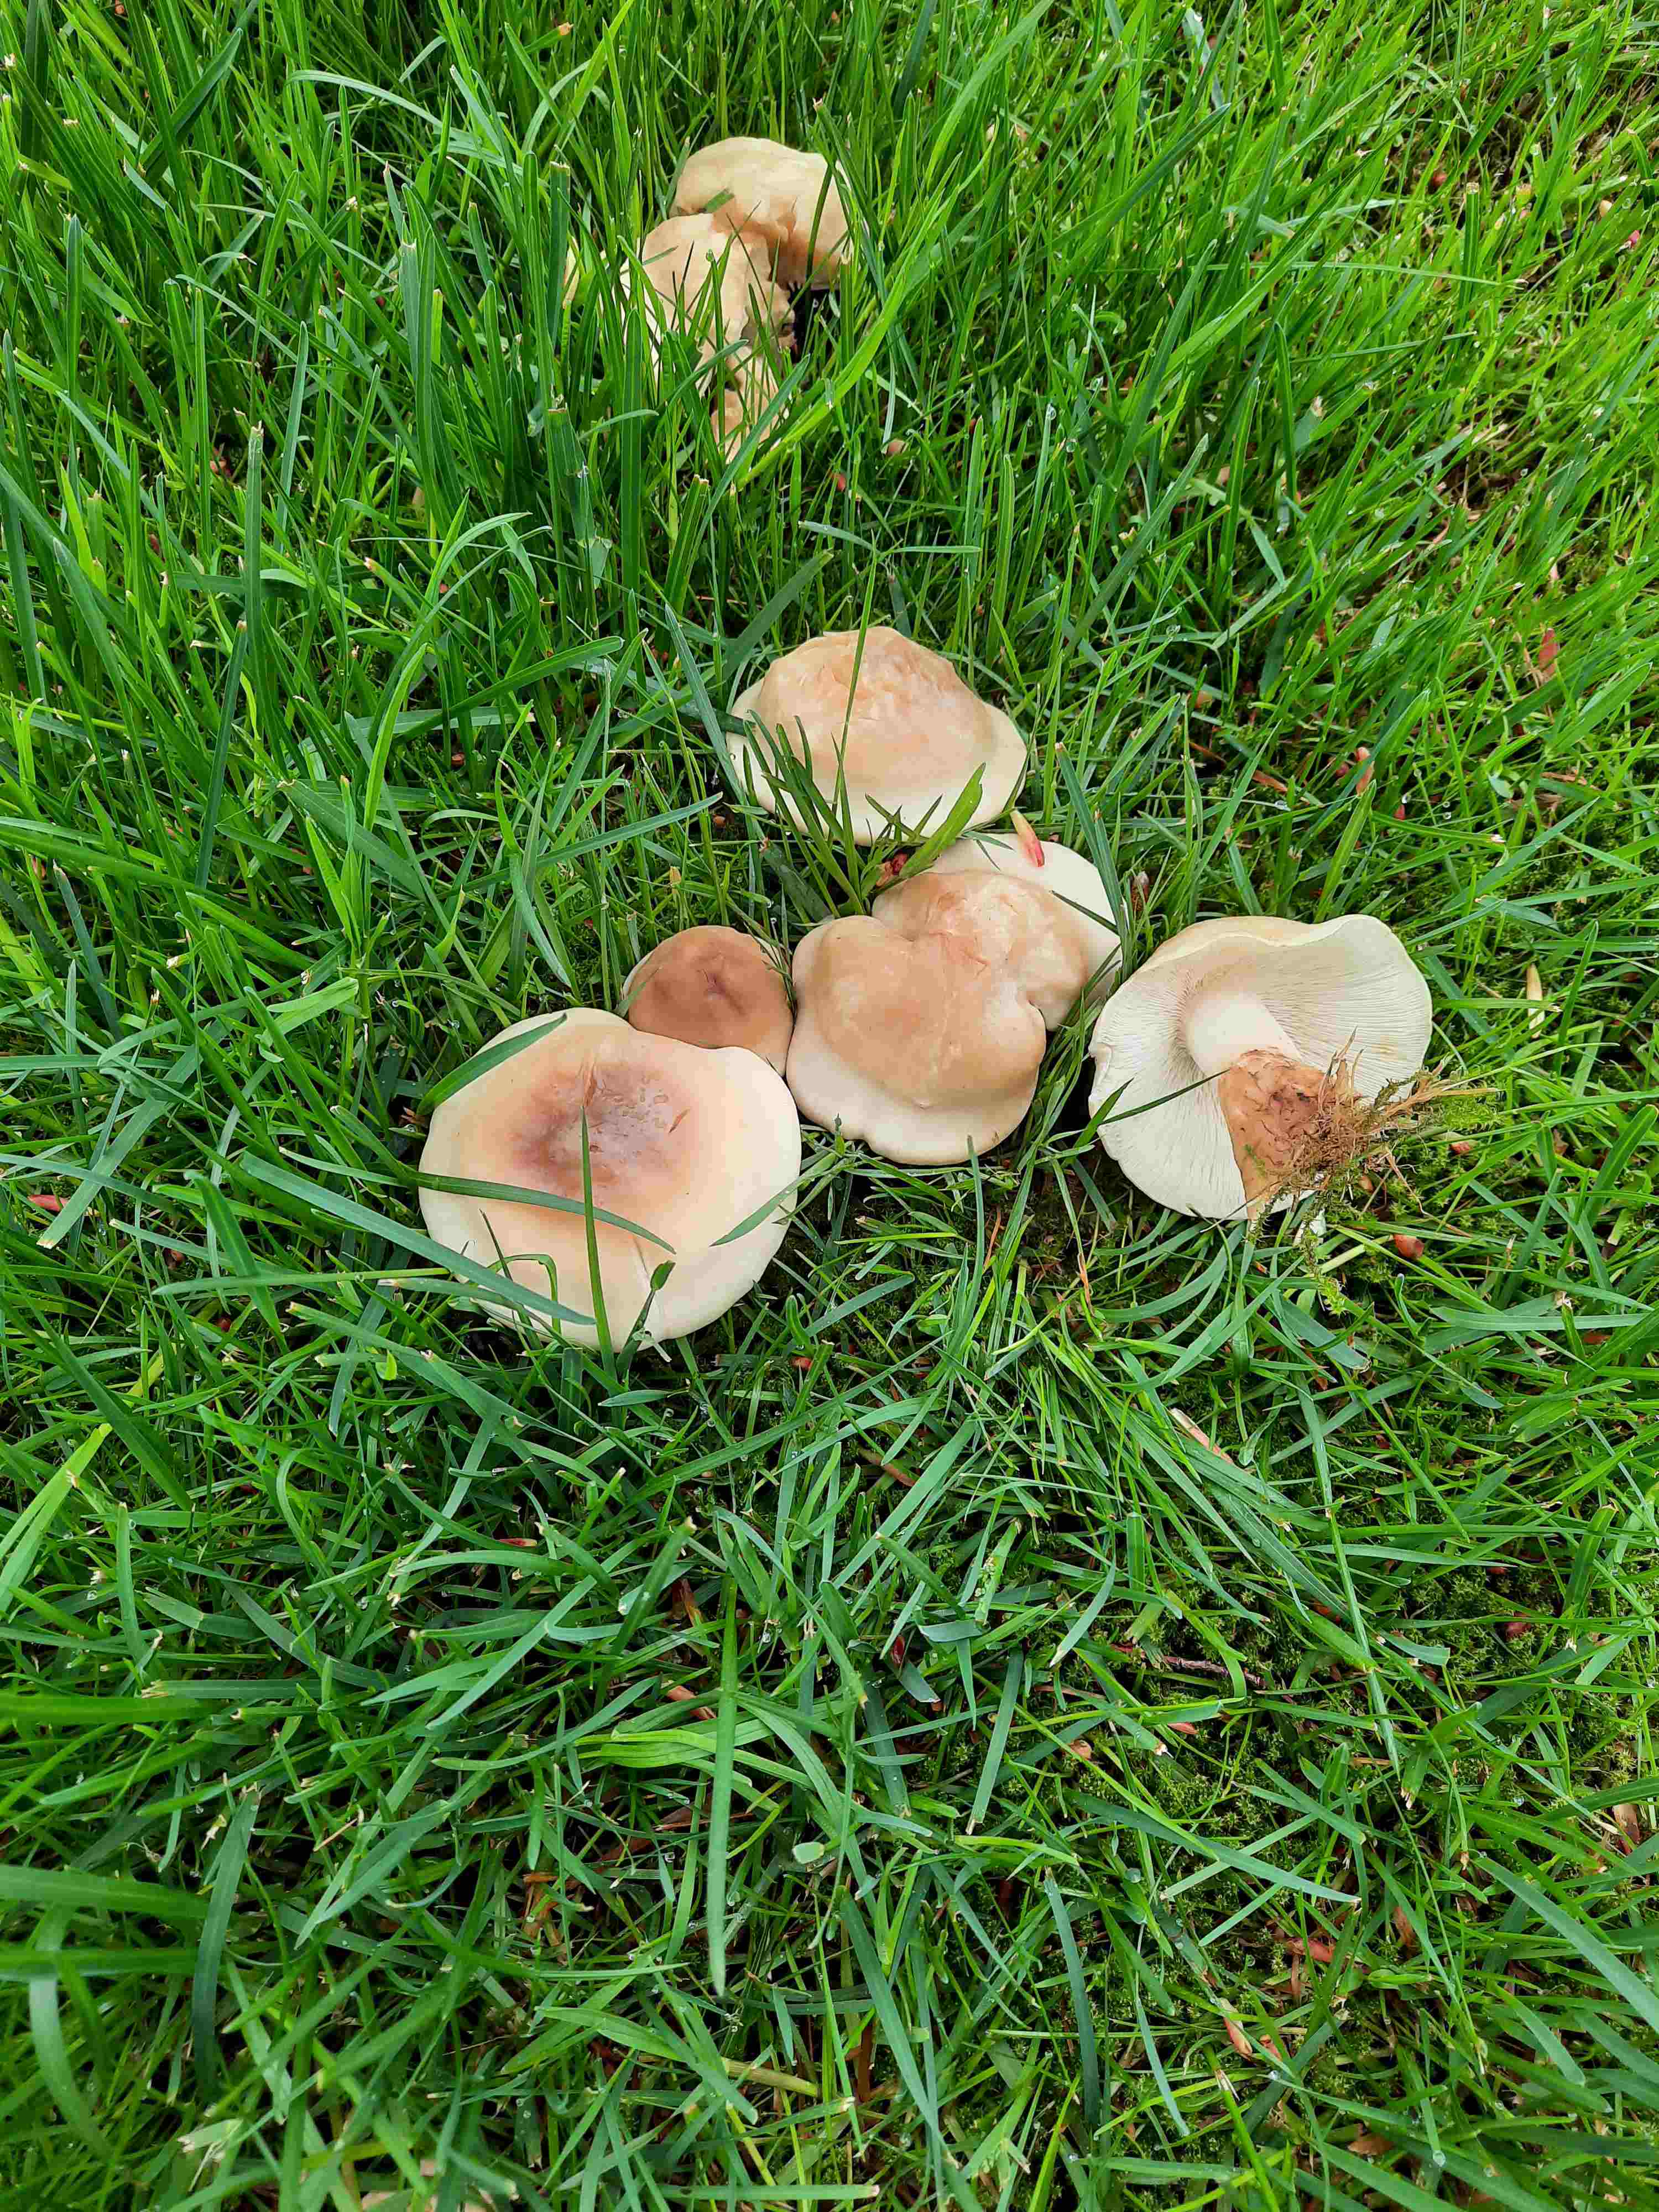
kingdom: Fungi
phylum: Basidiomycota
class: Agaricomycetes
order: Agaricales
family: Lyophyllaceae
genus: Calocybe
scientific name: Calocybe gambosa
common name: vårmusseron
